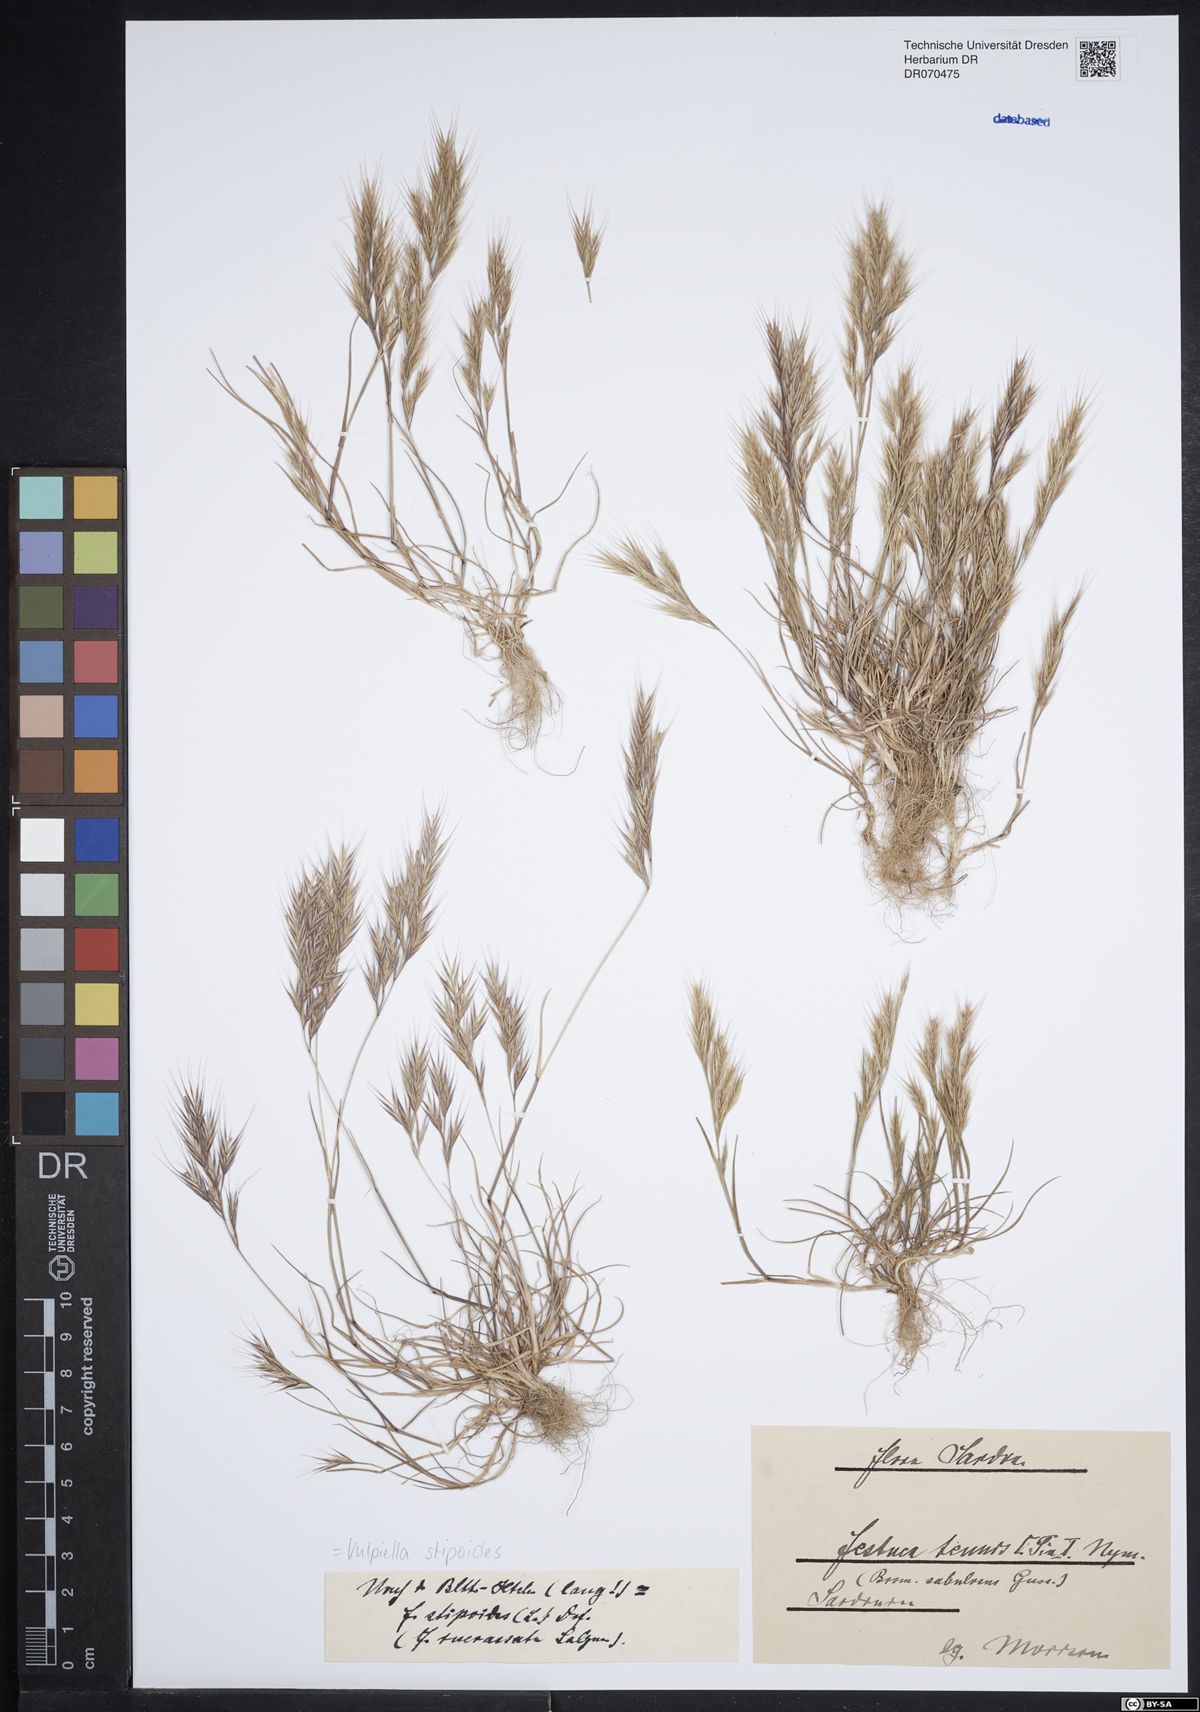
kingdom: Plantae
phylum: Tracheophyta
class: Liliopsida
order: Poales
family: Poaceae
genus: Vulpiella
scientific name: Vulpiella stipoides
